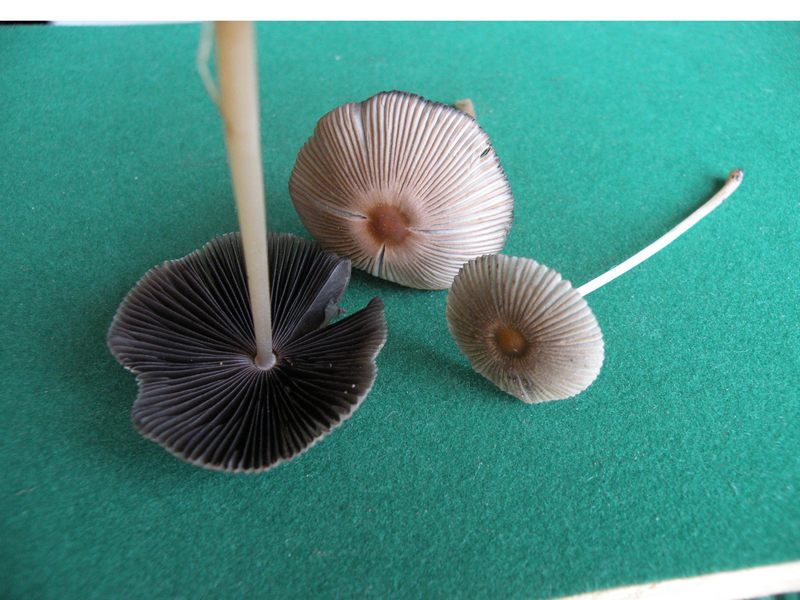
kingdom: Fungi
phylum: Basidiomycota
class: Agaricomycetes
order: Agaricales
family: Psathyrellaceae
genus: Parasola
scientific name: Parasola auricoma
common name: hansens hjulhat
